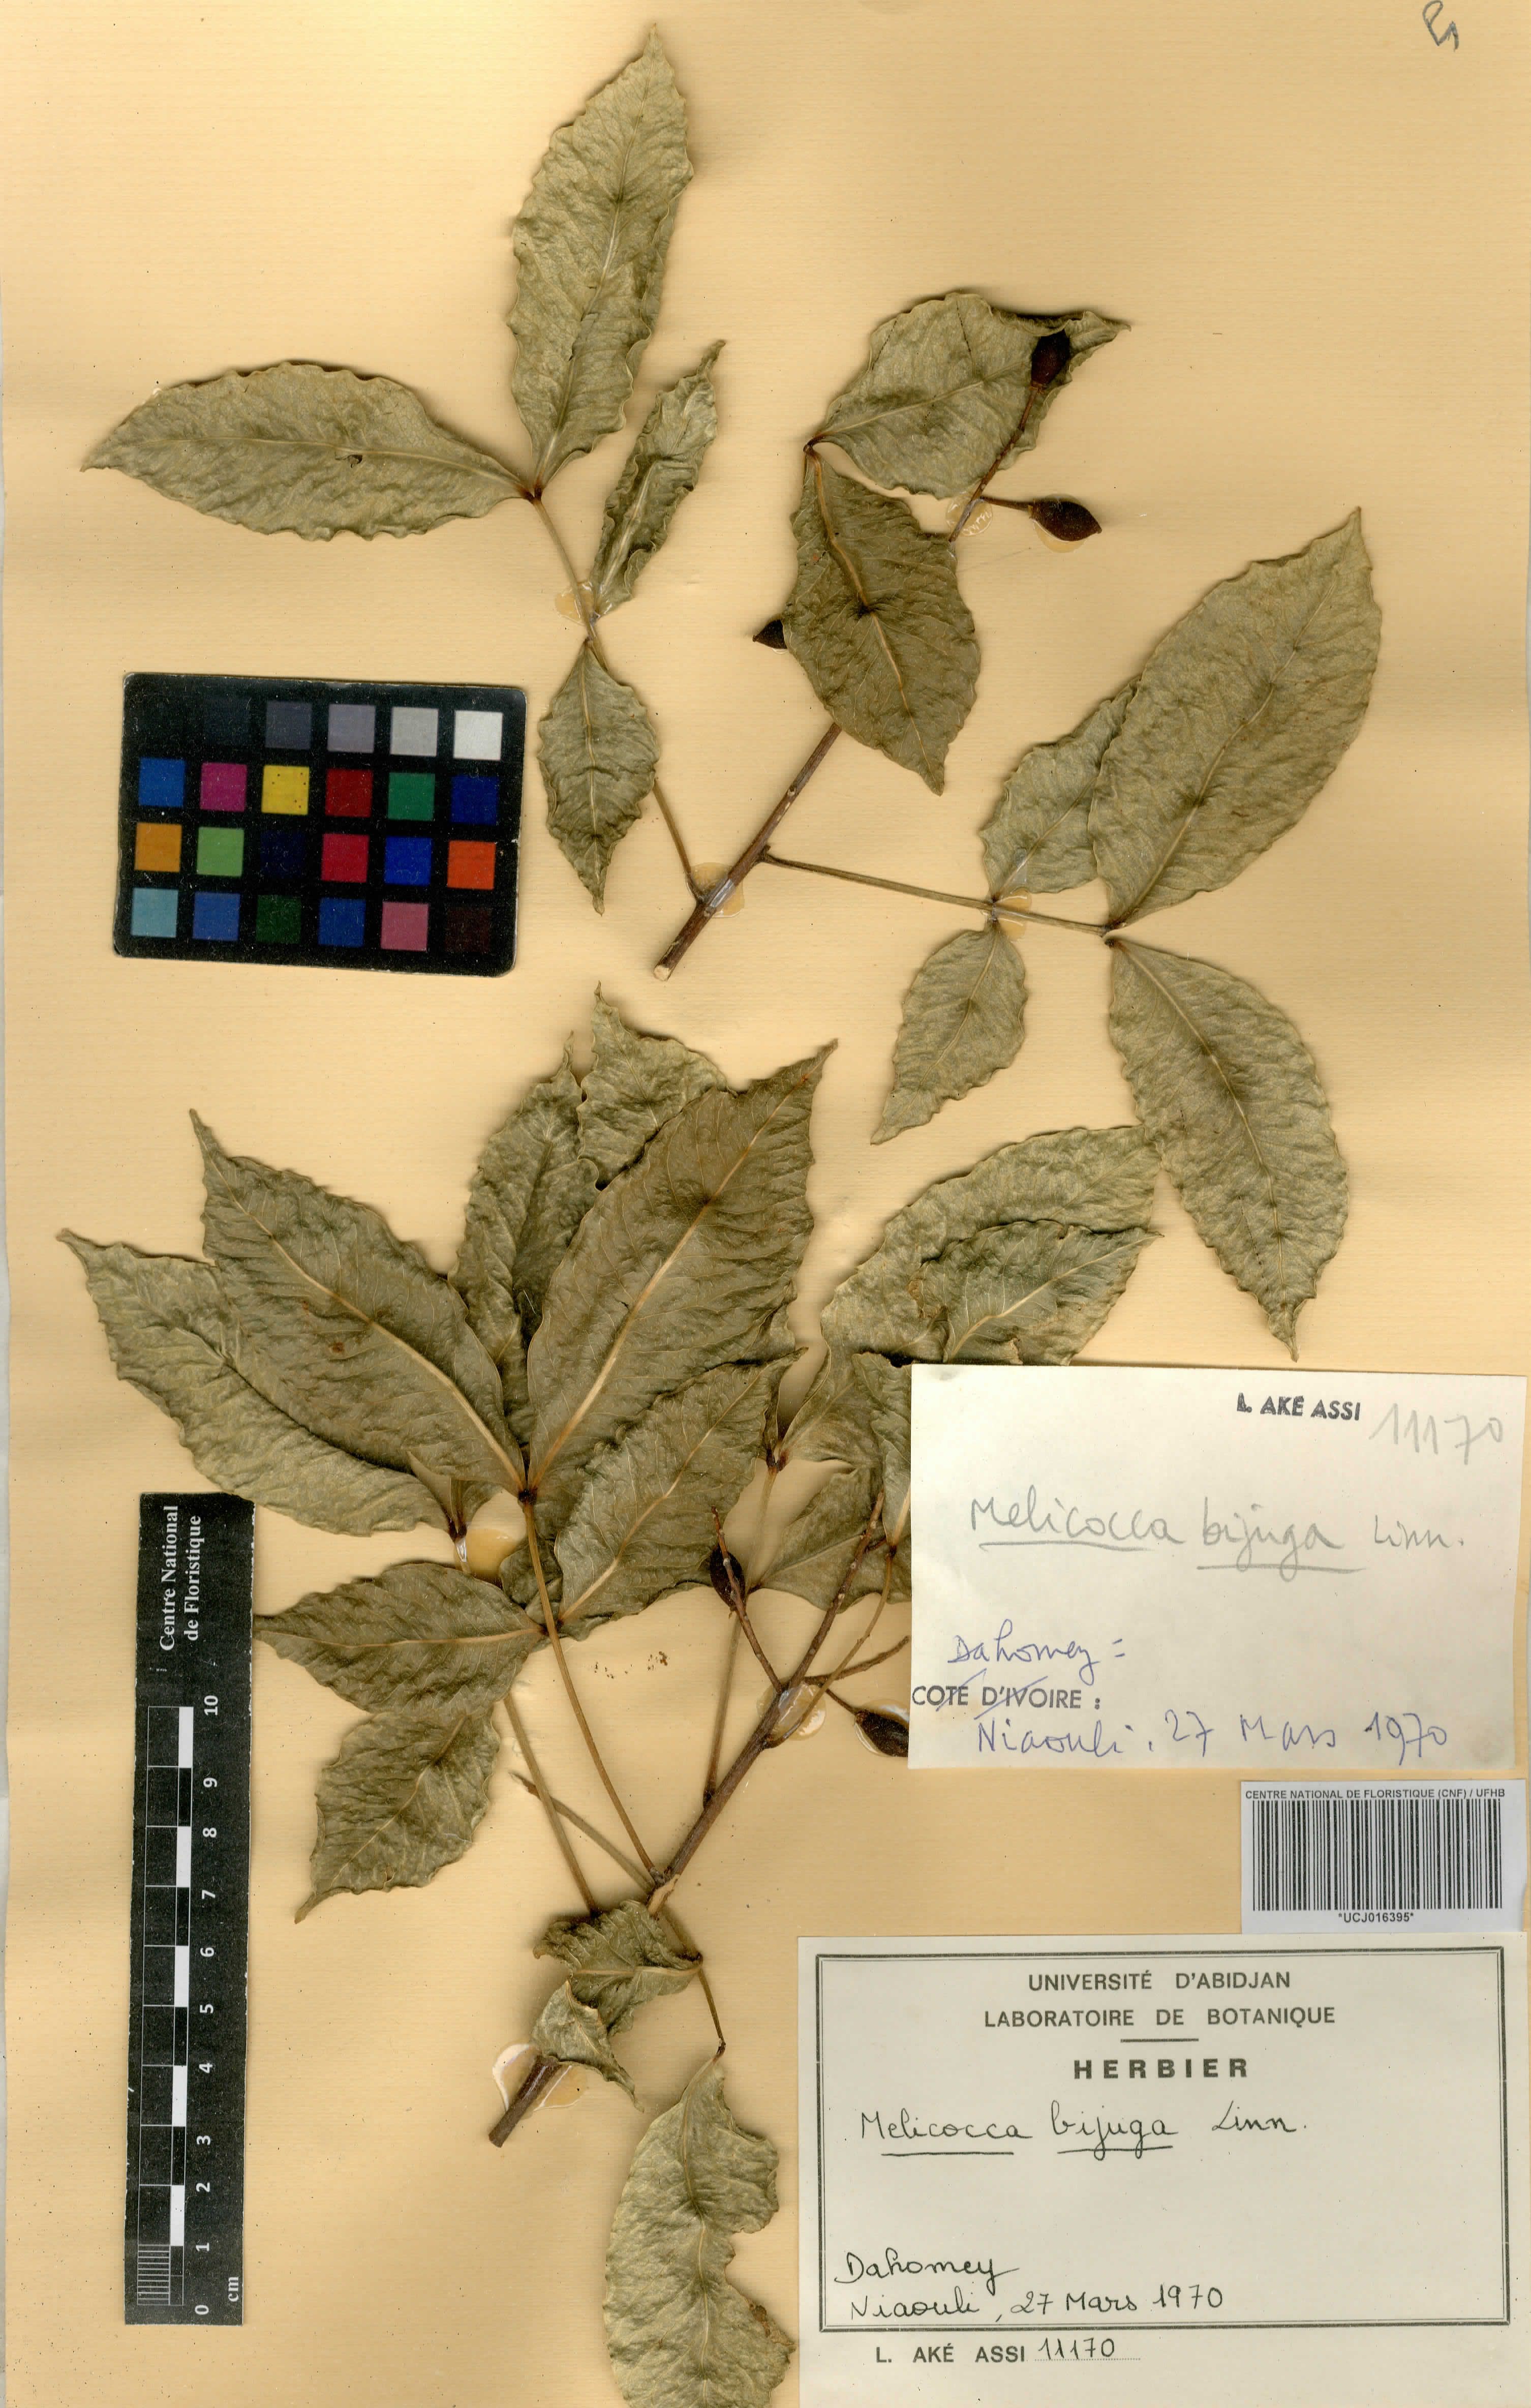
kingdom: Plantae
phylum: Tracheophyta
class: Magnoliopsida
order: Sapindales
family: Sapindaceae
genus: Melicoccus
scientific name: Melicoccus bijugatus
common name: Spanish lime
